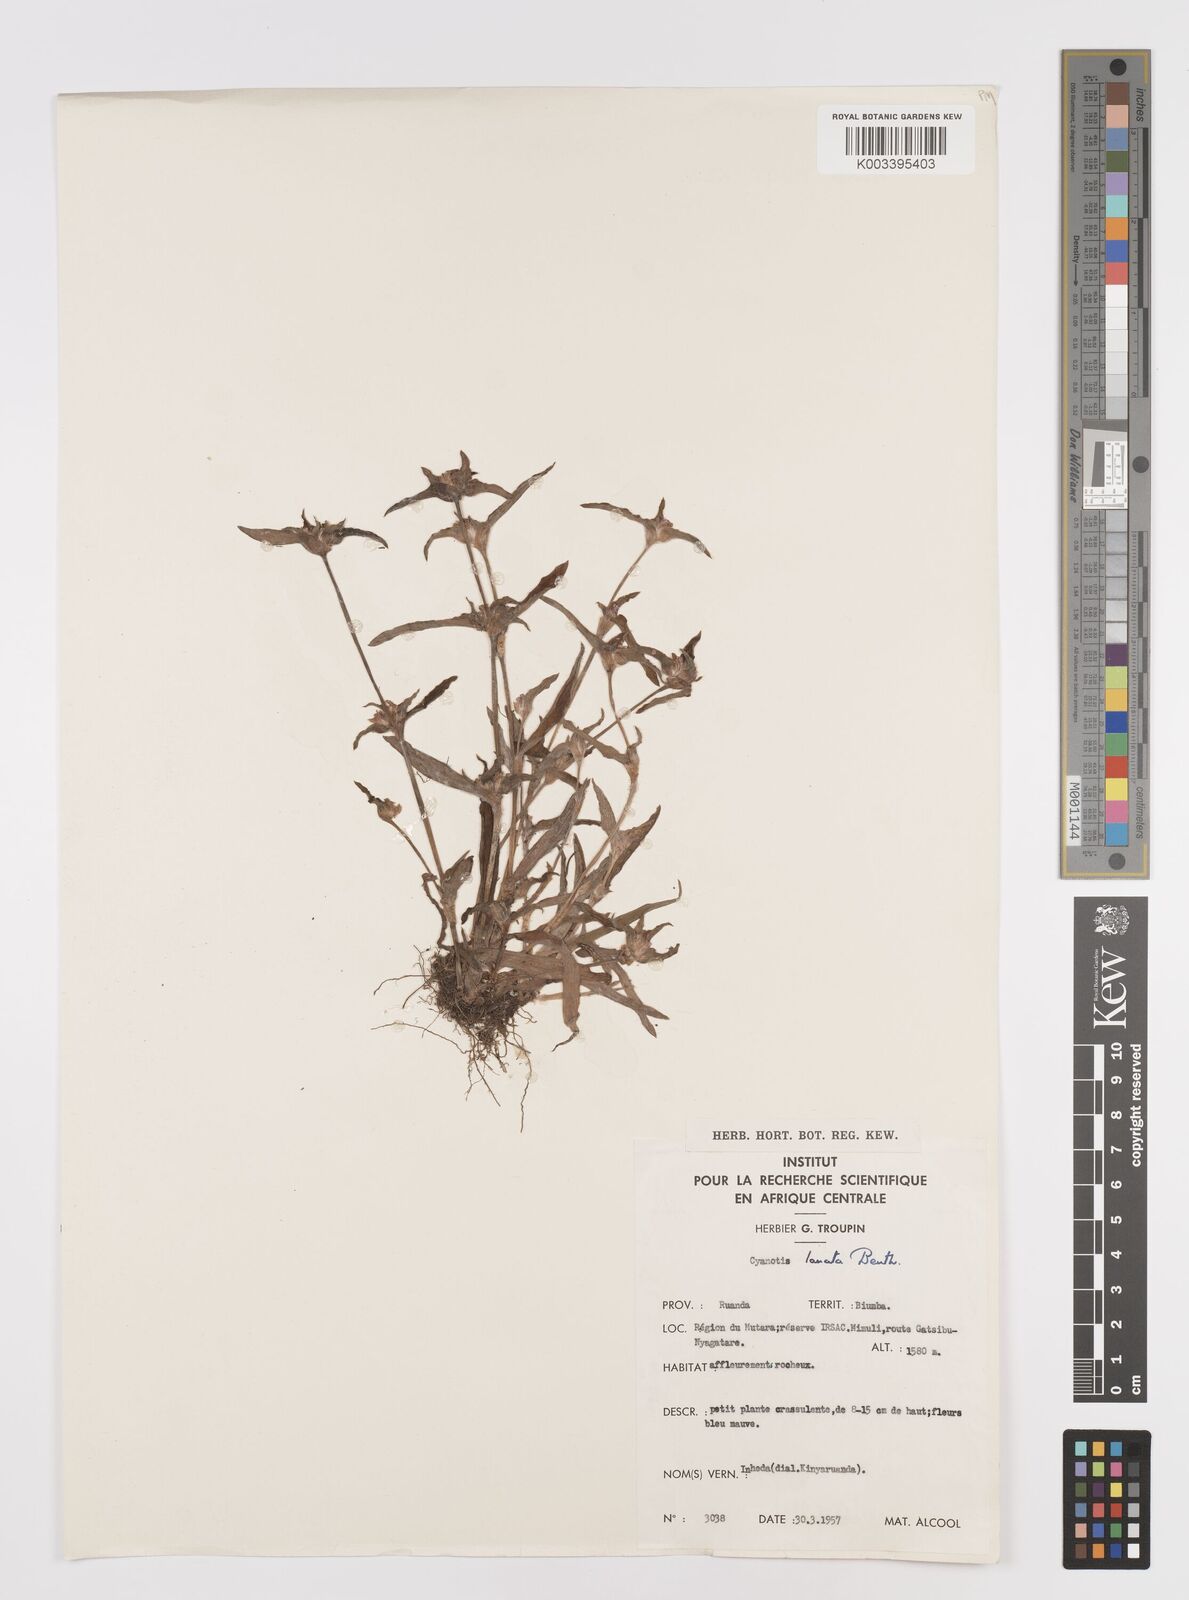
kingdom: Plantae
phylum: Tracheophyta
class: Liliopsida
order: Commelinales
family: Commelinaceae
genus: Cyanotis
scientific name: Cyanotis lanata
